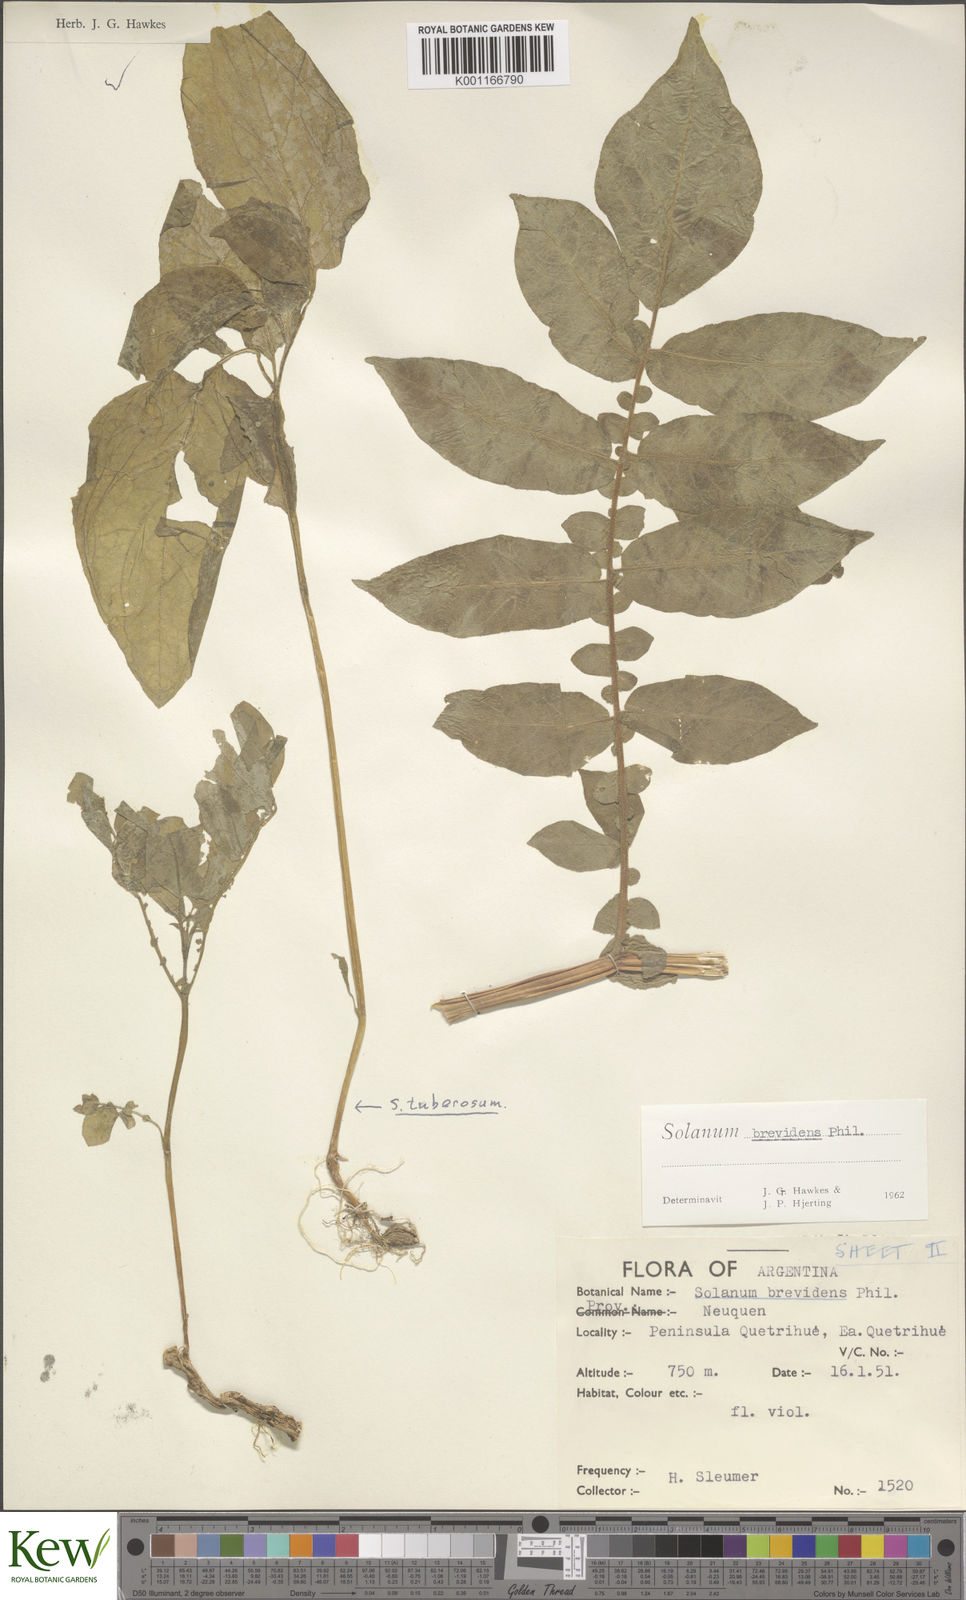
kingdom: Plantae
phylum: Tracheophyta
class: Magnoliopsida
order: Solanales
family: Solanaceae
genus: Solanum
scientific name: Solanum palustre
